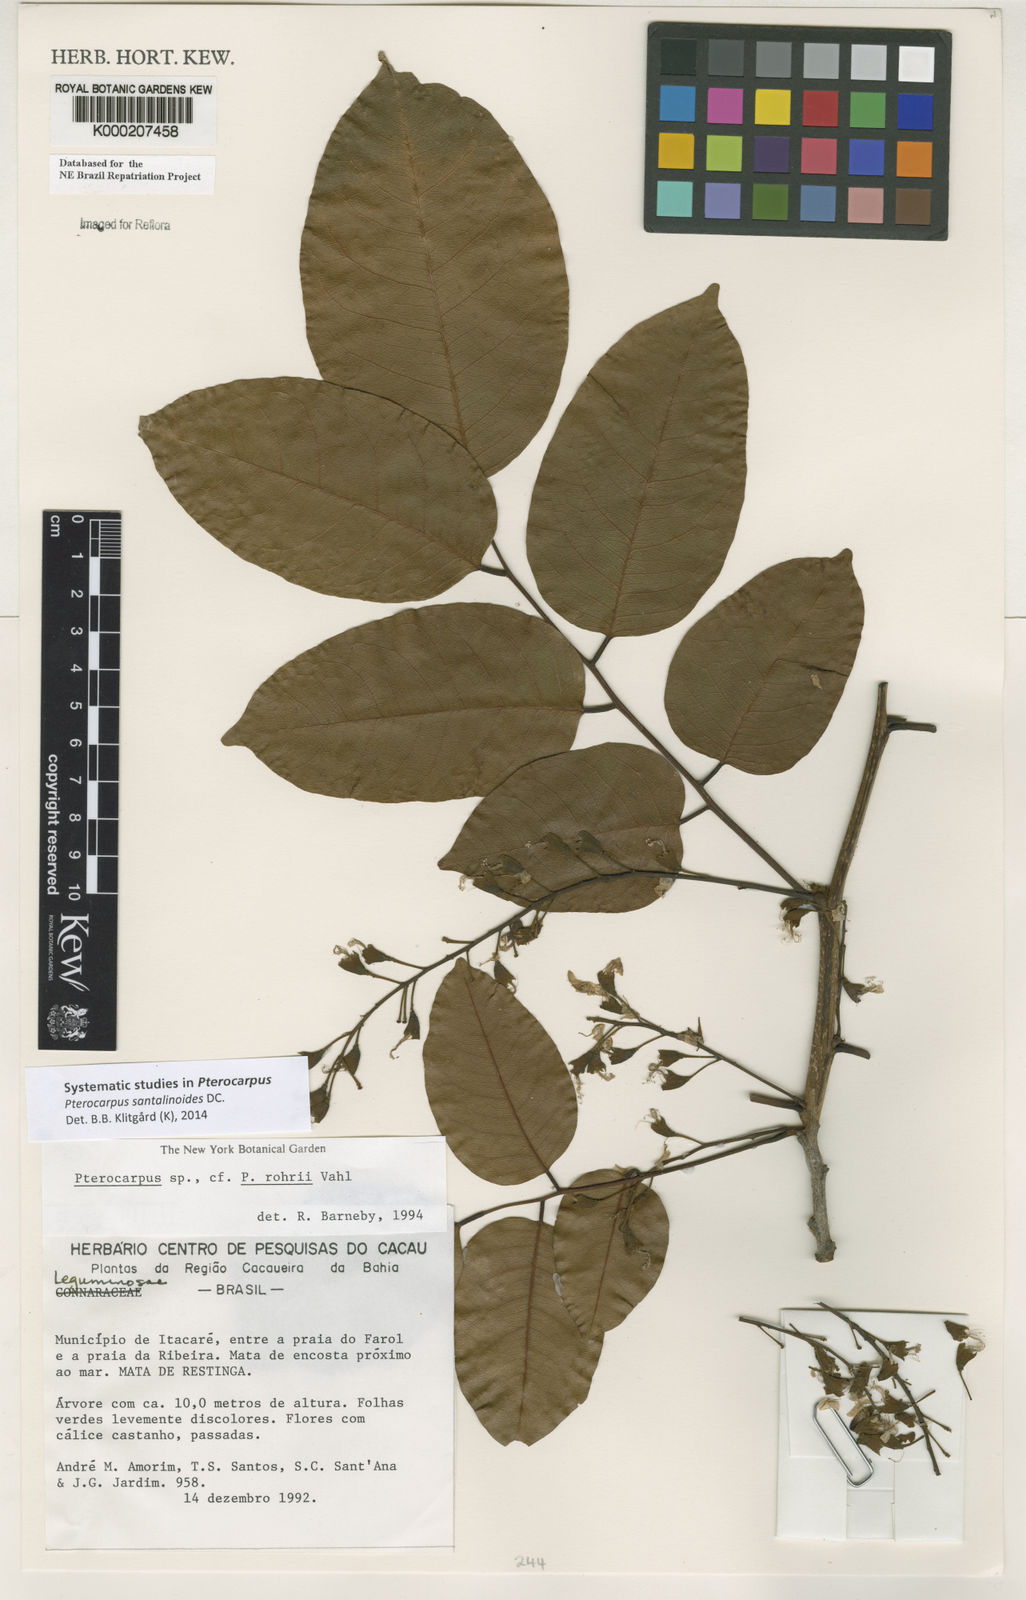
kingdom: Plantae
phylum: Tracheophyta
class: Magnoliopsida
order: Fabales
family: Fabaceae
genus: Pterocarpus
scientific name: Pterocarpus santalinoides
